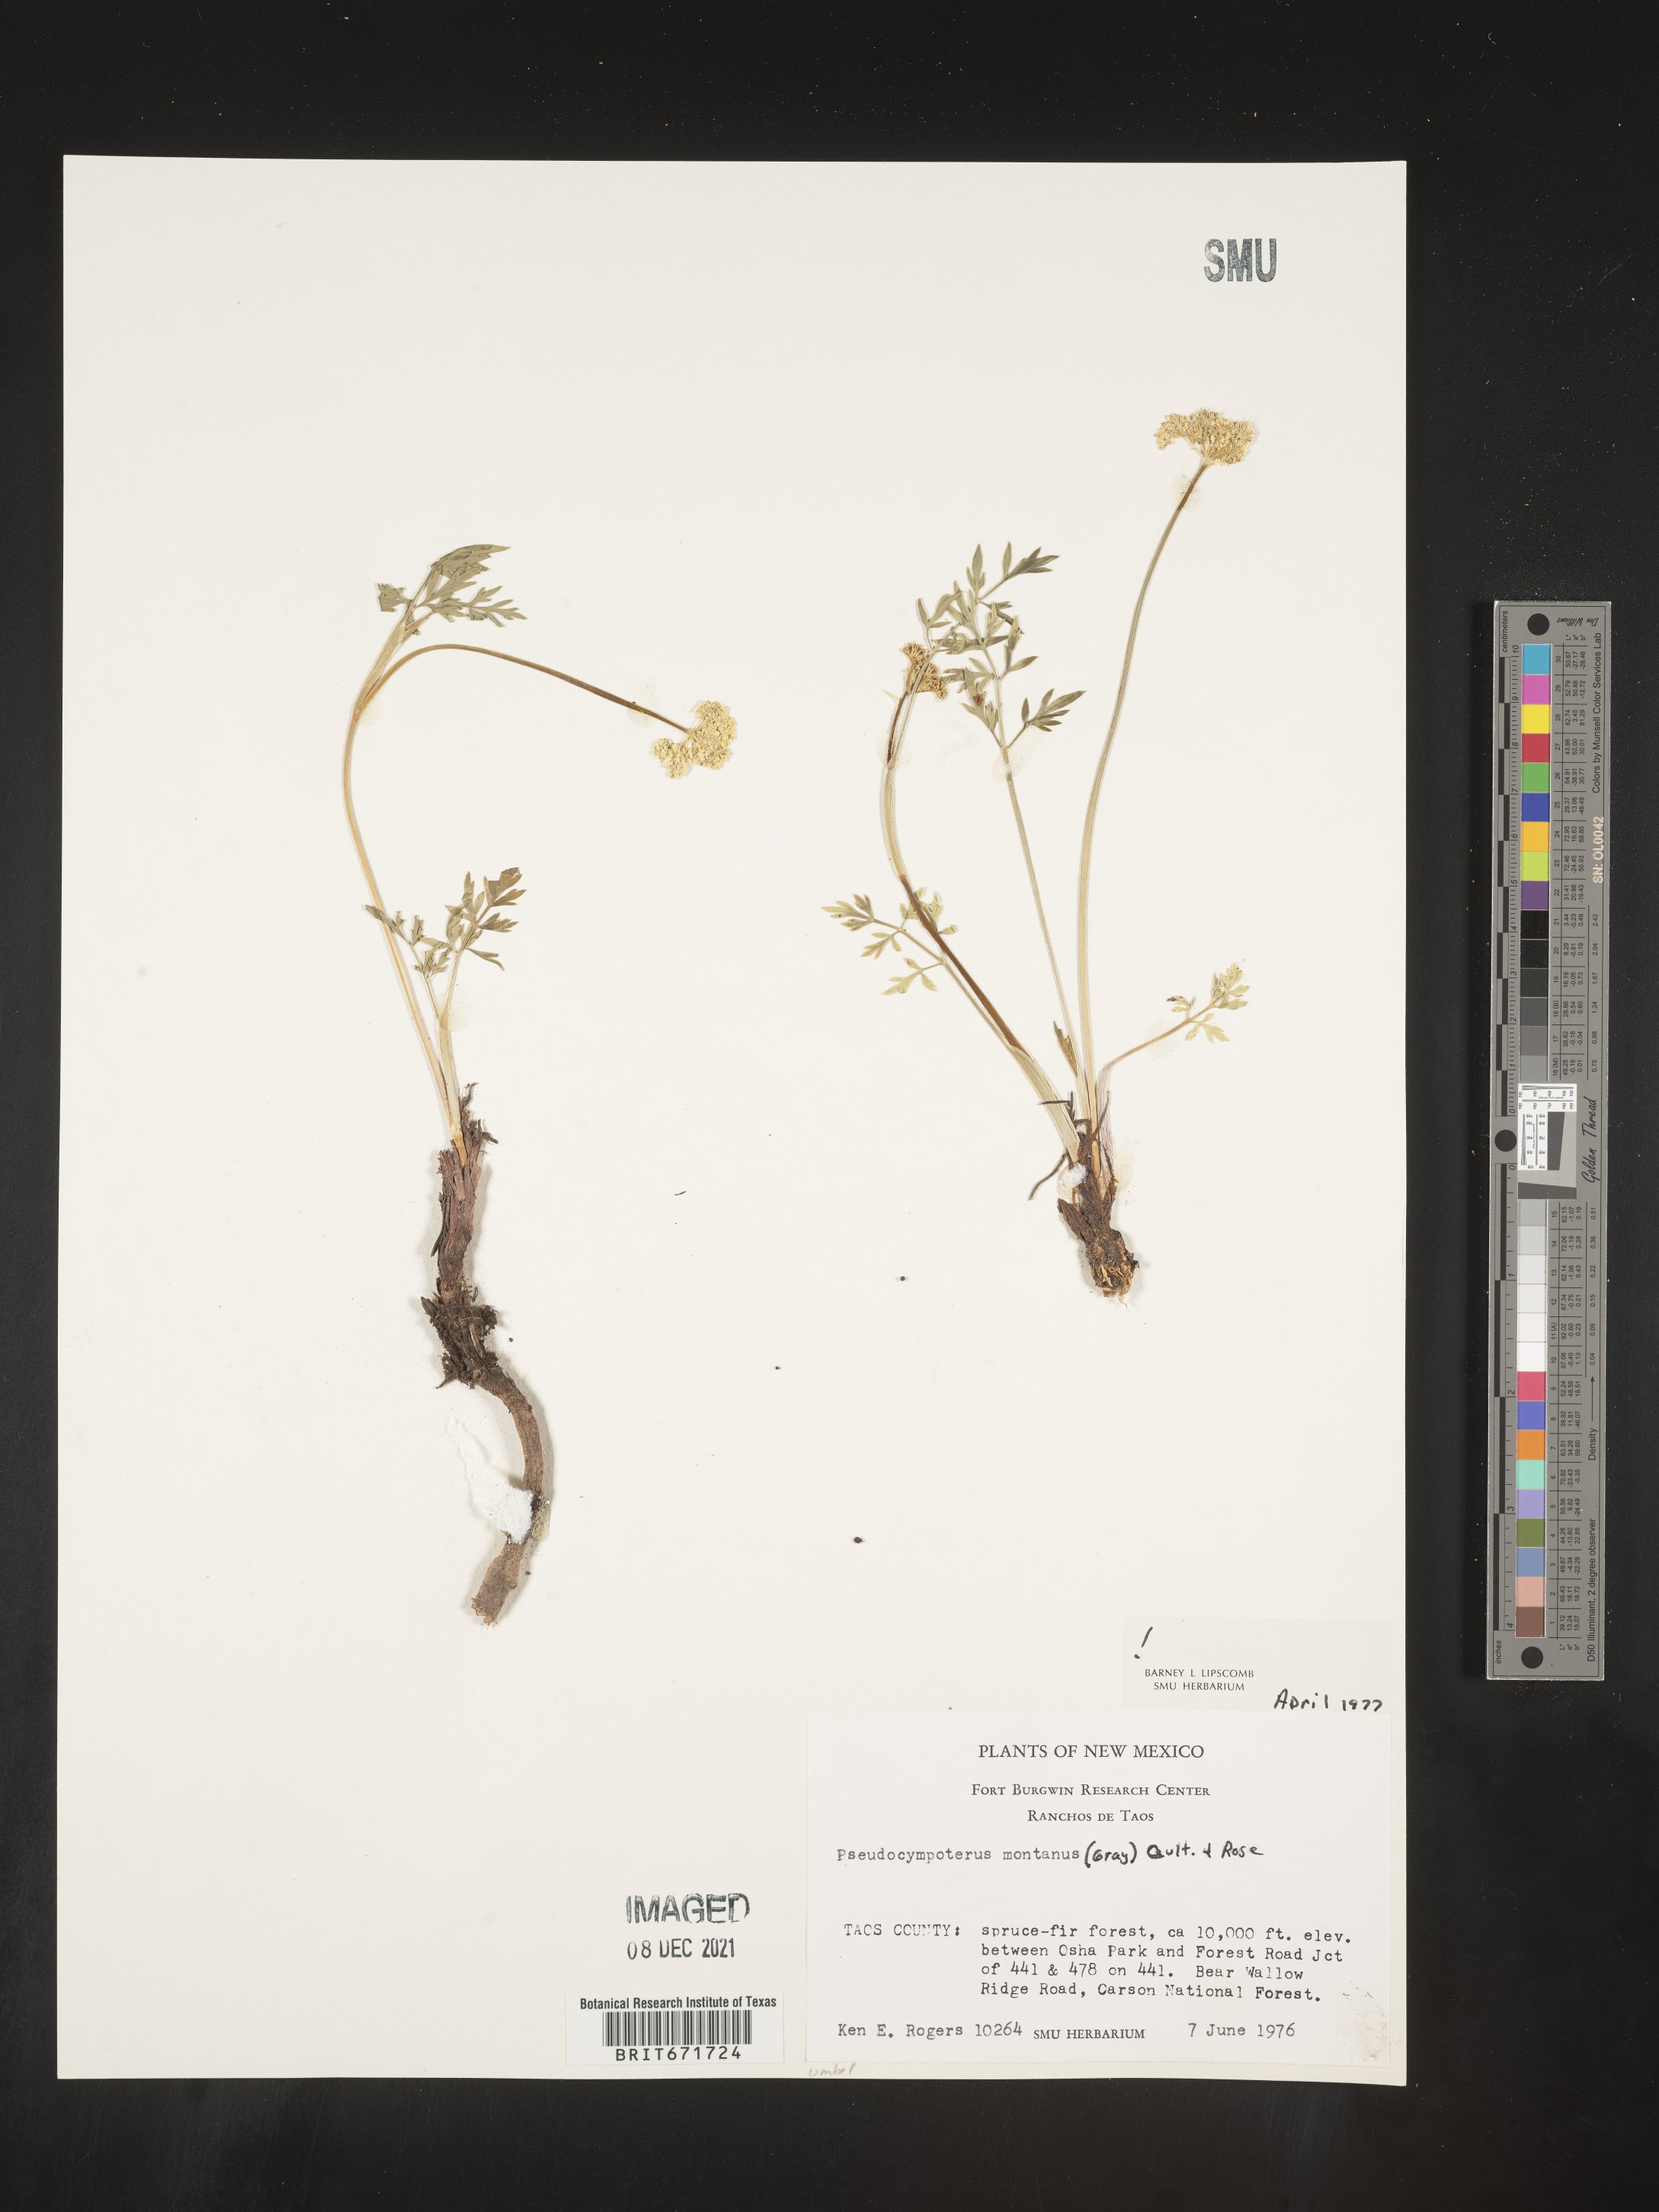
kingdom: Plantae
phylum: Tracheophyta
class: Magnoliopsida
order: Apiales
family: Apiaceae
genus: Cymopterus
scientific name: Cymopterus lemmonii
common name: Lemmon's spring-parsley
